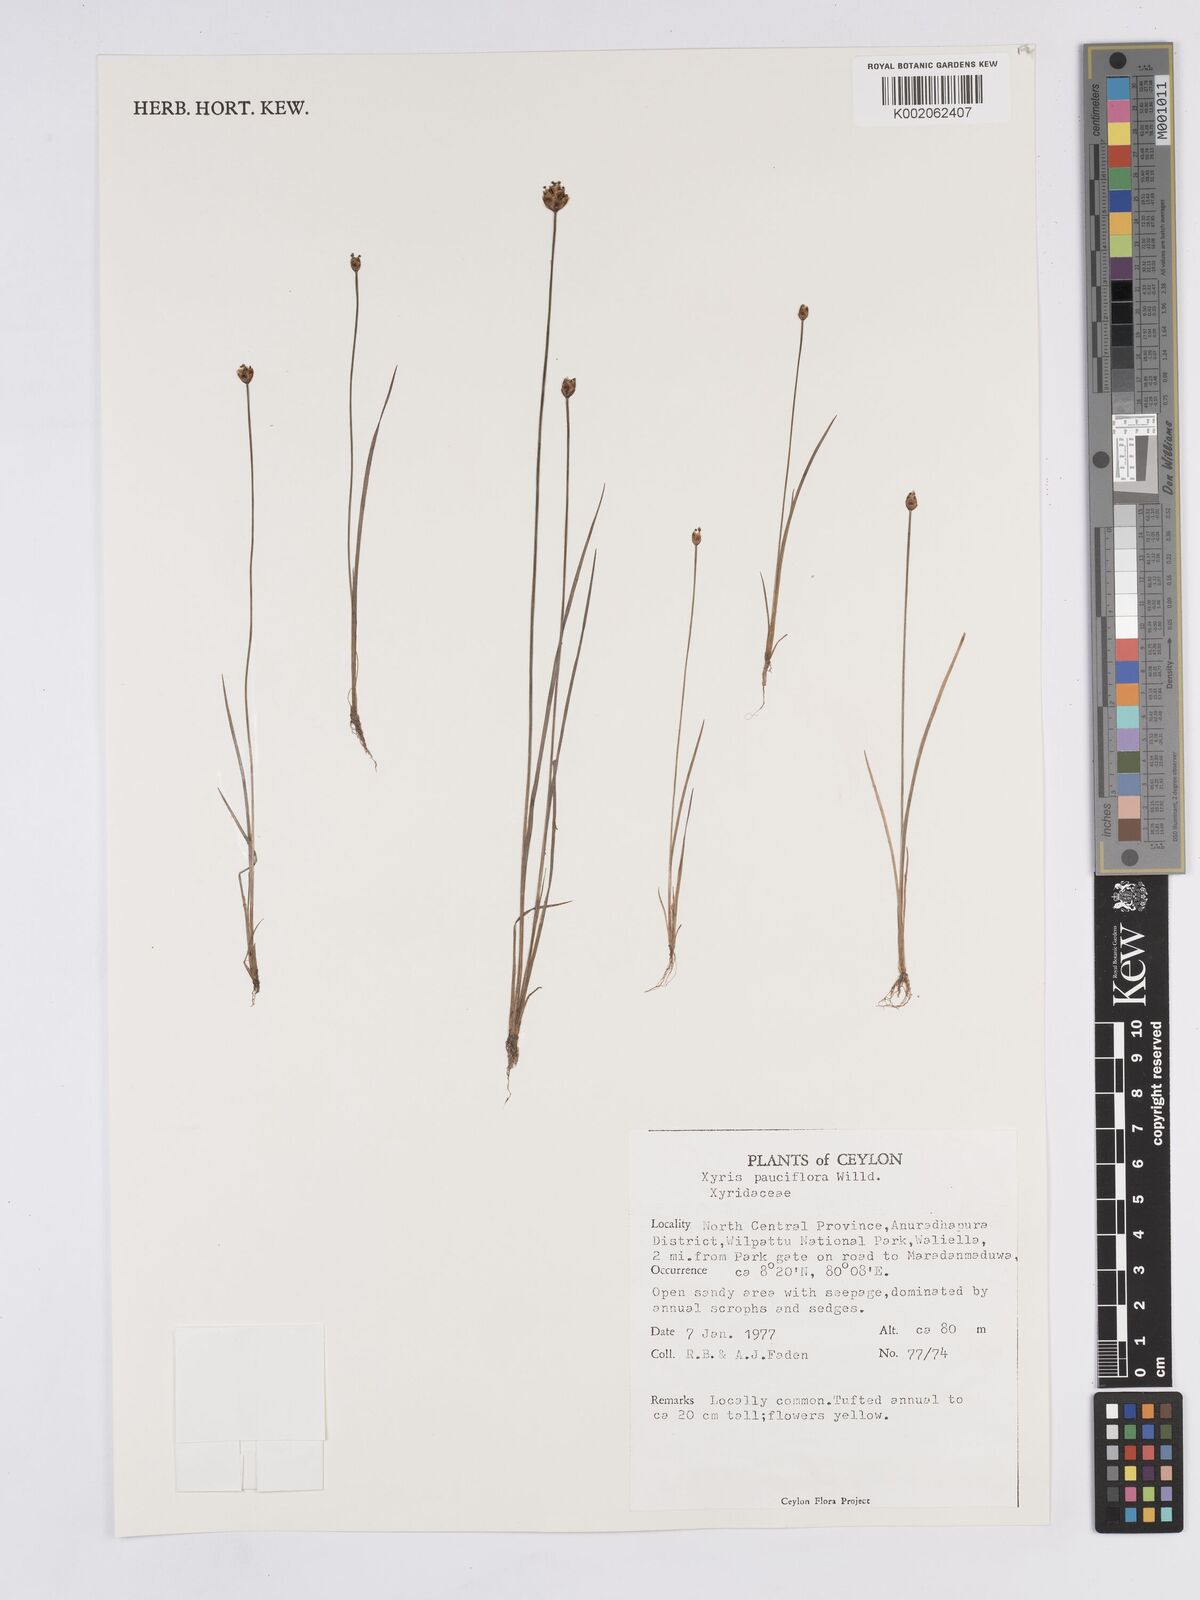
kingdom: Plantae
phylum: Tracheophyta
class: Liliopsida
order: Poales
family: Xyridaceae
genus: Xyris
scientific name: Xyris pauciflora
